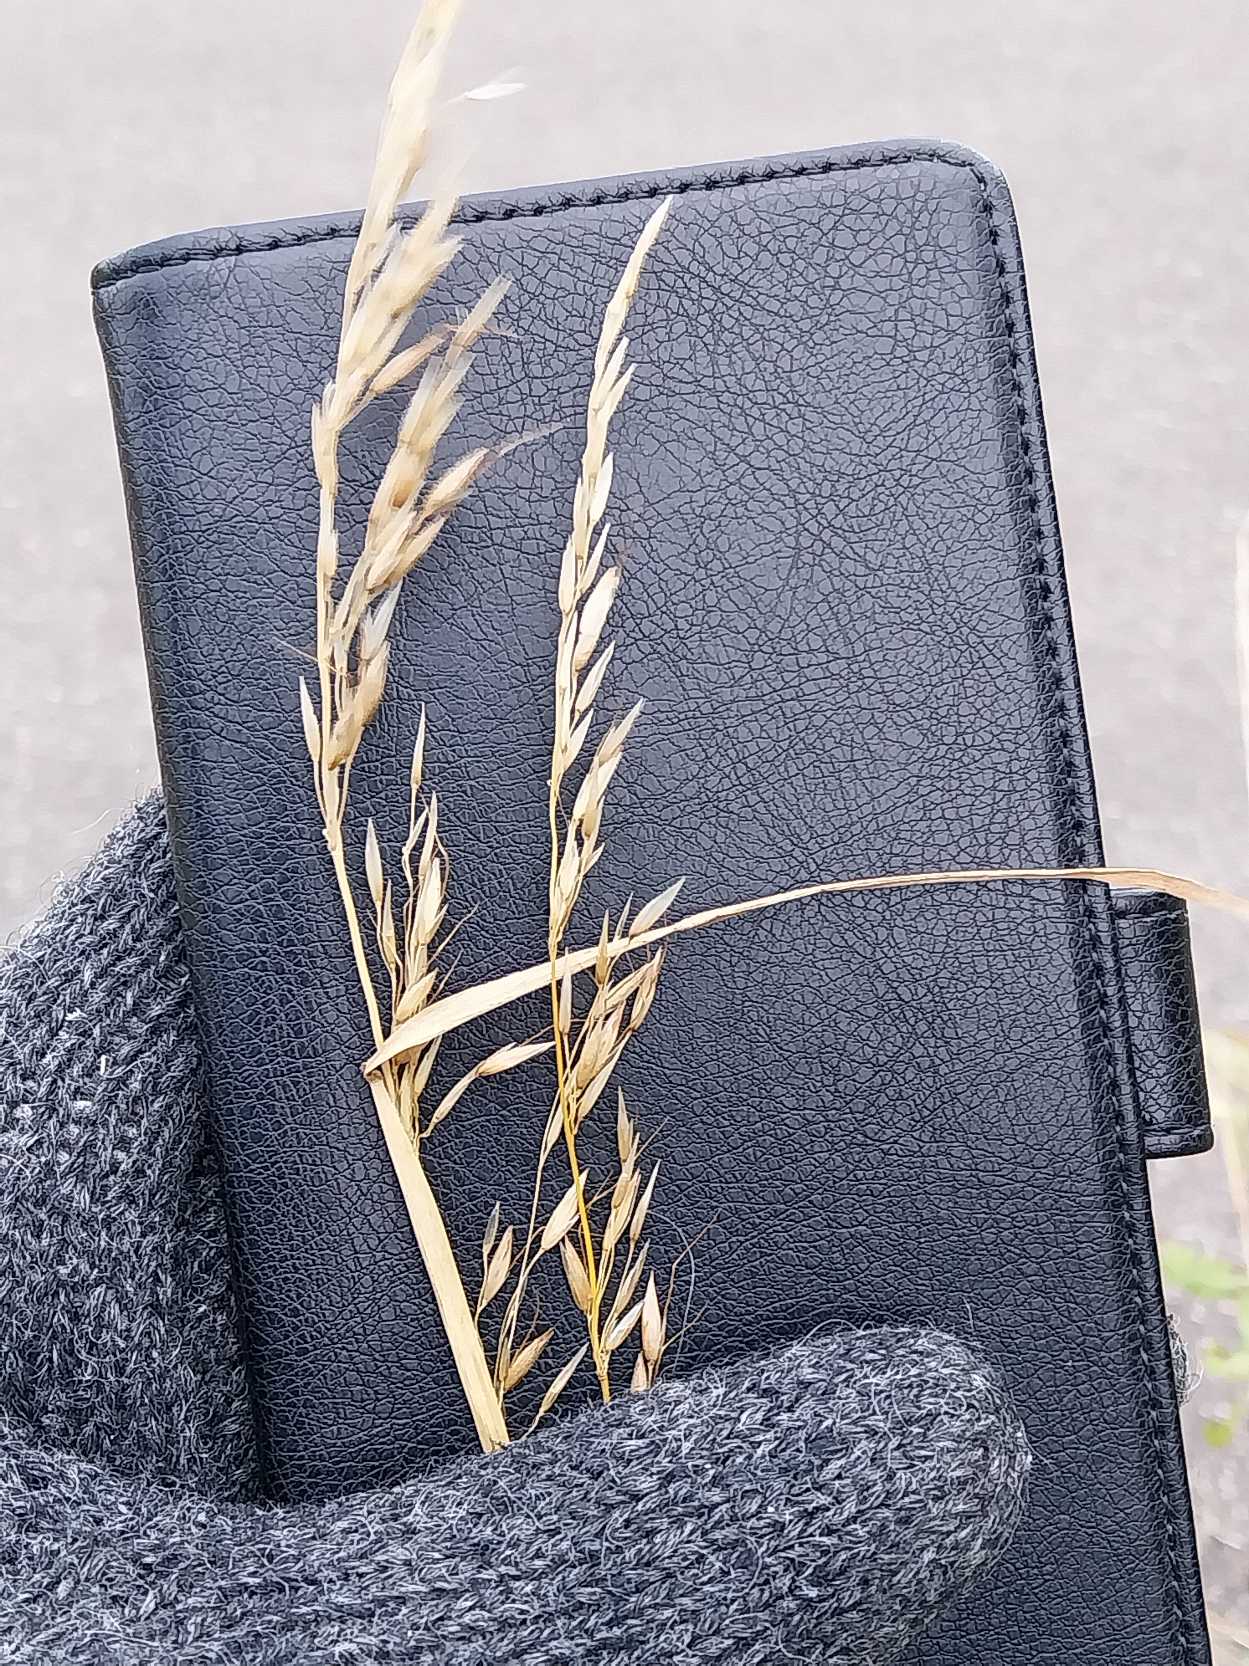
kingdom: Plantae
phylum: Tracheophyta
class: Liliopsida
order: Poales
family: Poaceae
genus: Arrhenatherum
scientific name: Arrhenatherum elatius
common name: Draphavre
